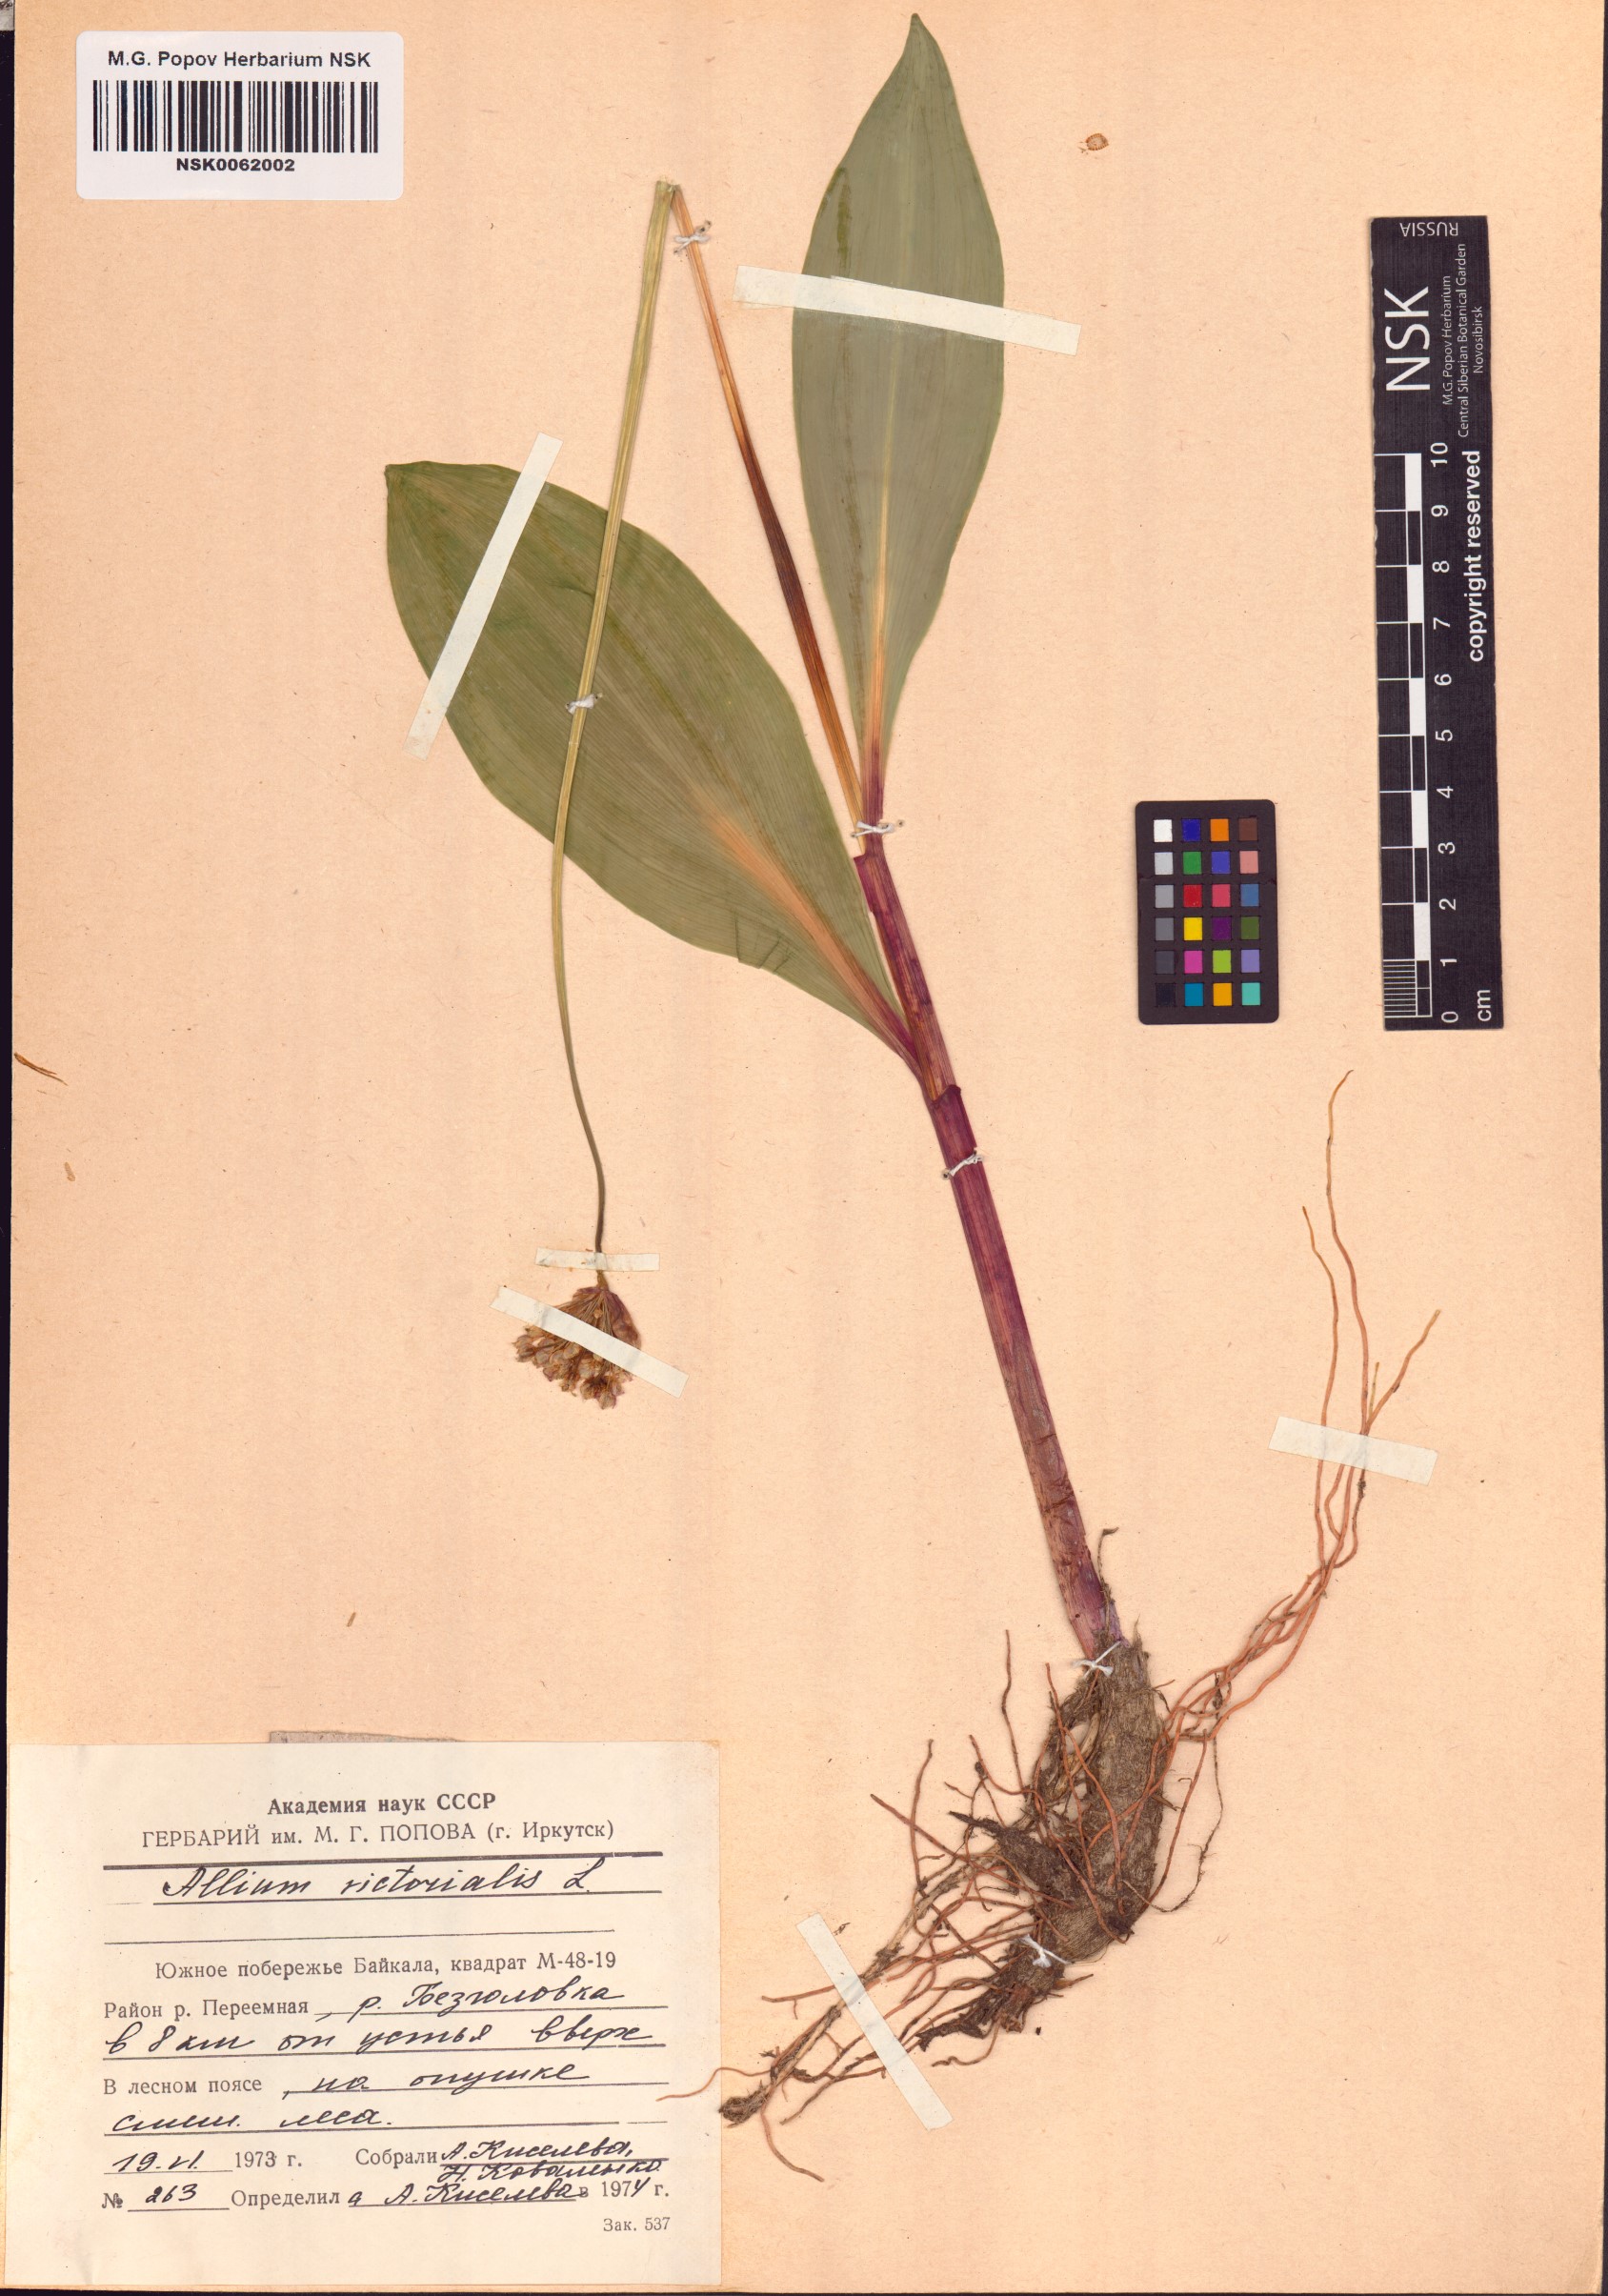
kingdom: Plantae
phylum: Tracheophyta
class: Liliopsida
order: Asparagales
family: Amaryllidaceae
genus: Allium
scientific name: Allium victorialis
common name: Alpine leek
